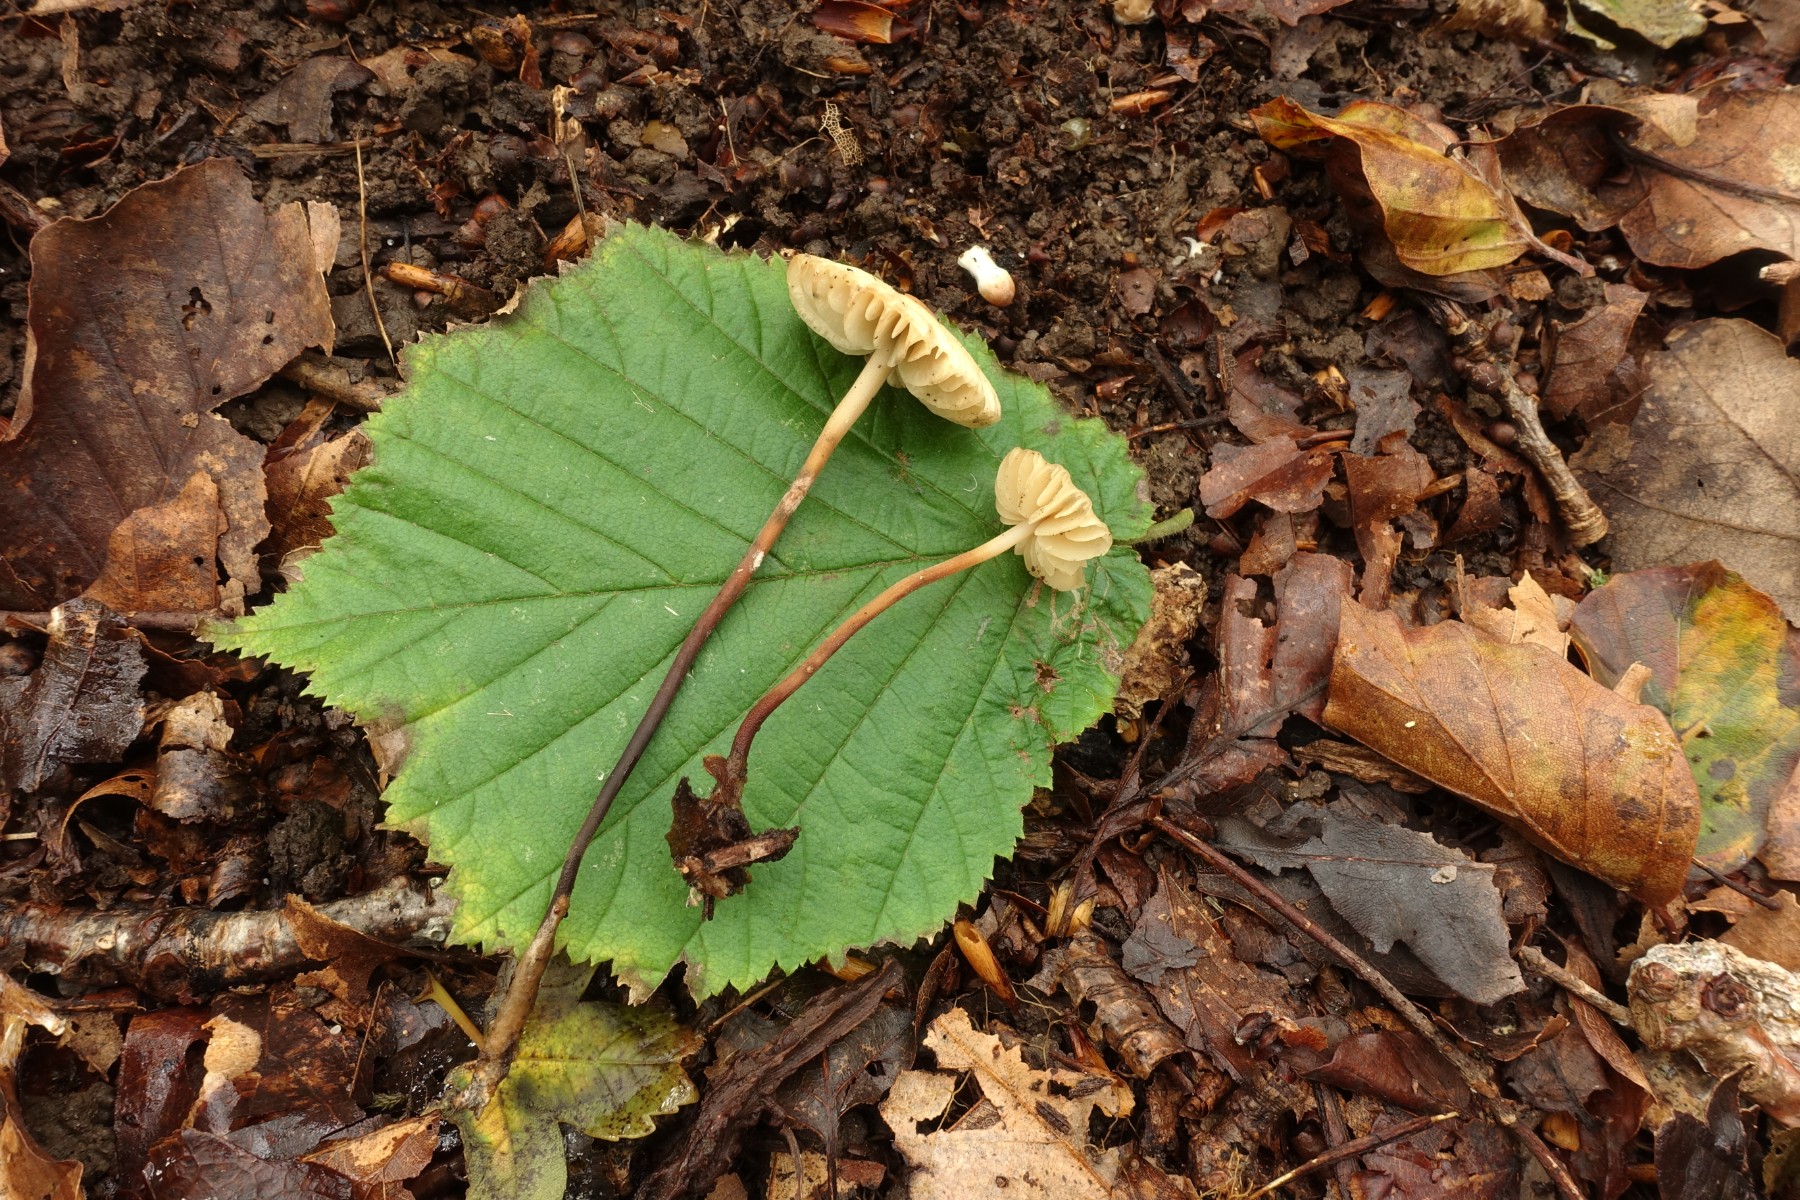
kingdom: Fungi
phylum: Basidiomycota
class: Agaricomycetes
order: Agaricales
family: Marasmiaceae
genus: Marasmius
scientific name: Marasmius torquescens
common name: filtfodet bruskhat
